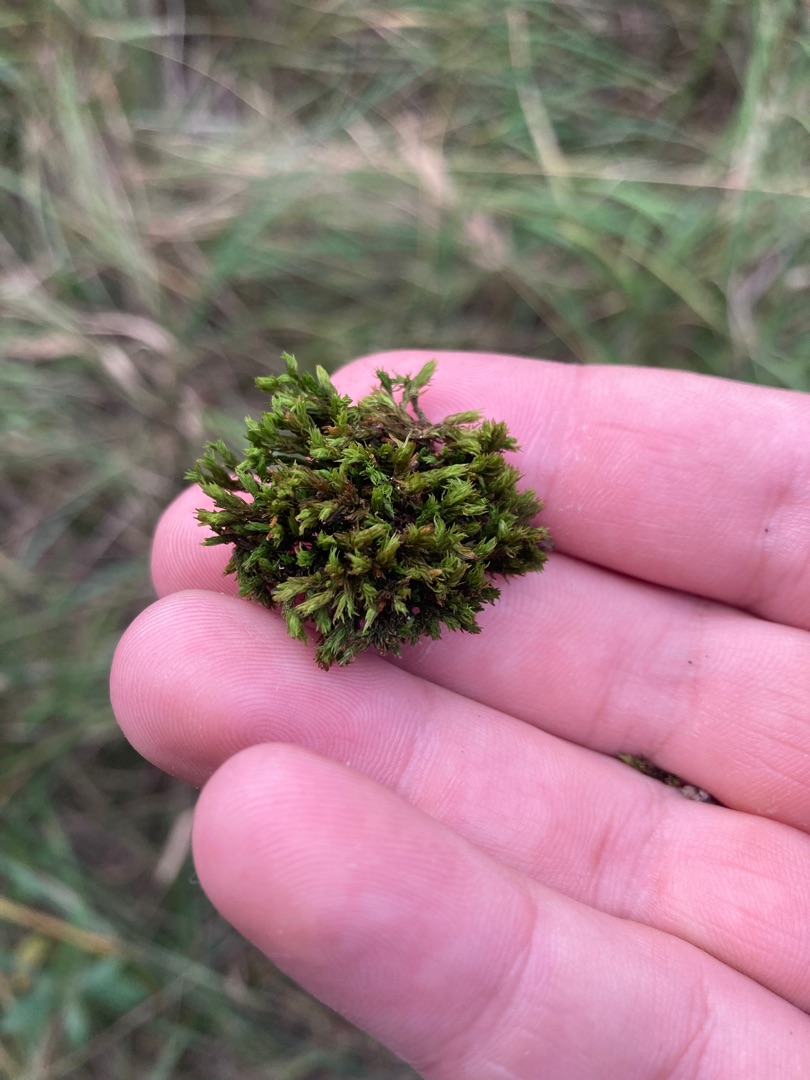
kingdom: Plantae
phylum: Bryophyta
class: Bryopsida
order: Orthotrichales
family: Orthotrichaceae
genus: Orthotrichum
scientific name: Orthotrichum
